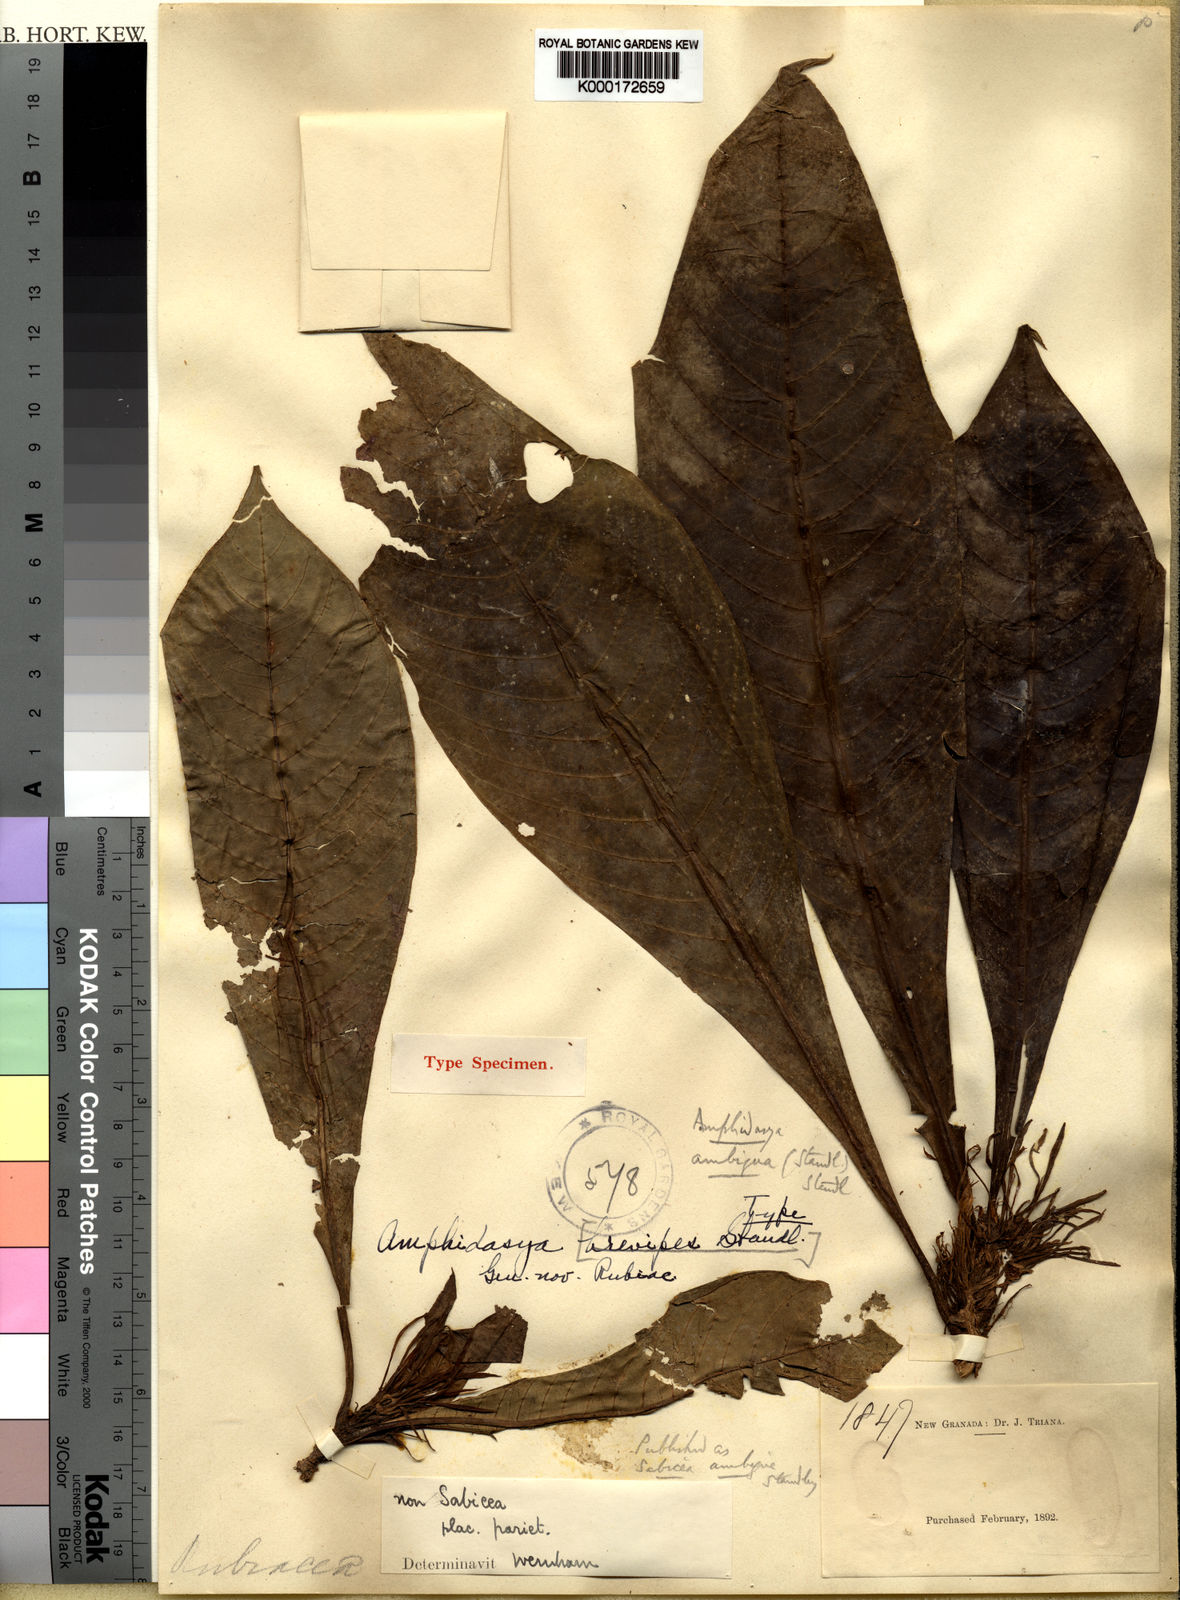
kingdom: Plantae
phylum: Tracheophyta
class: Magnoliopsida
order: Gentianales
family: Rubiaceae
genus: Amphidasya
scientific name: Amphidasya ambigua
